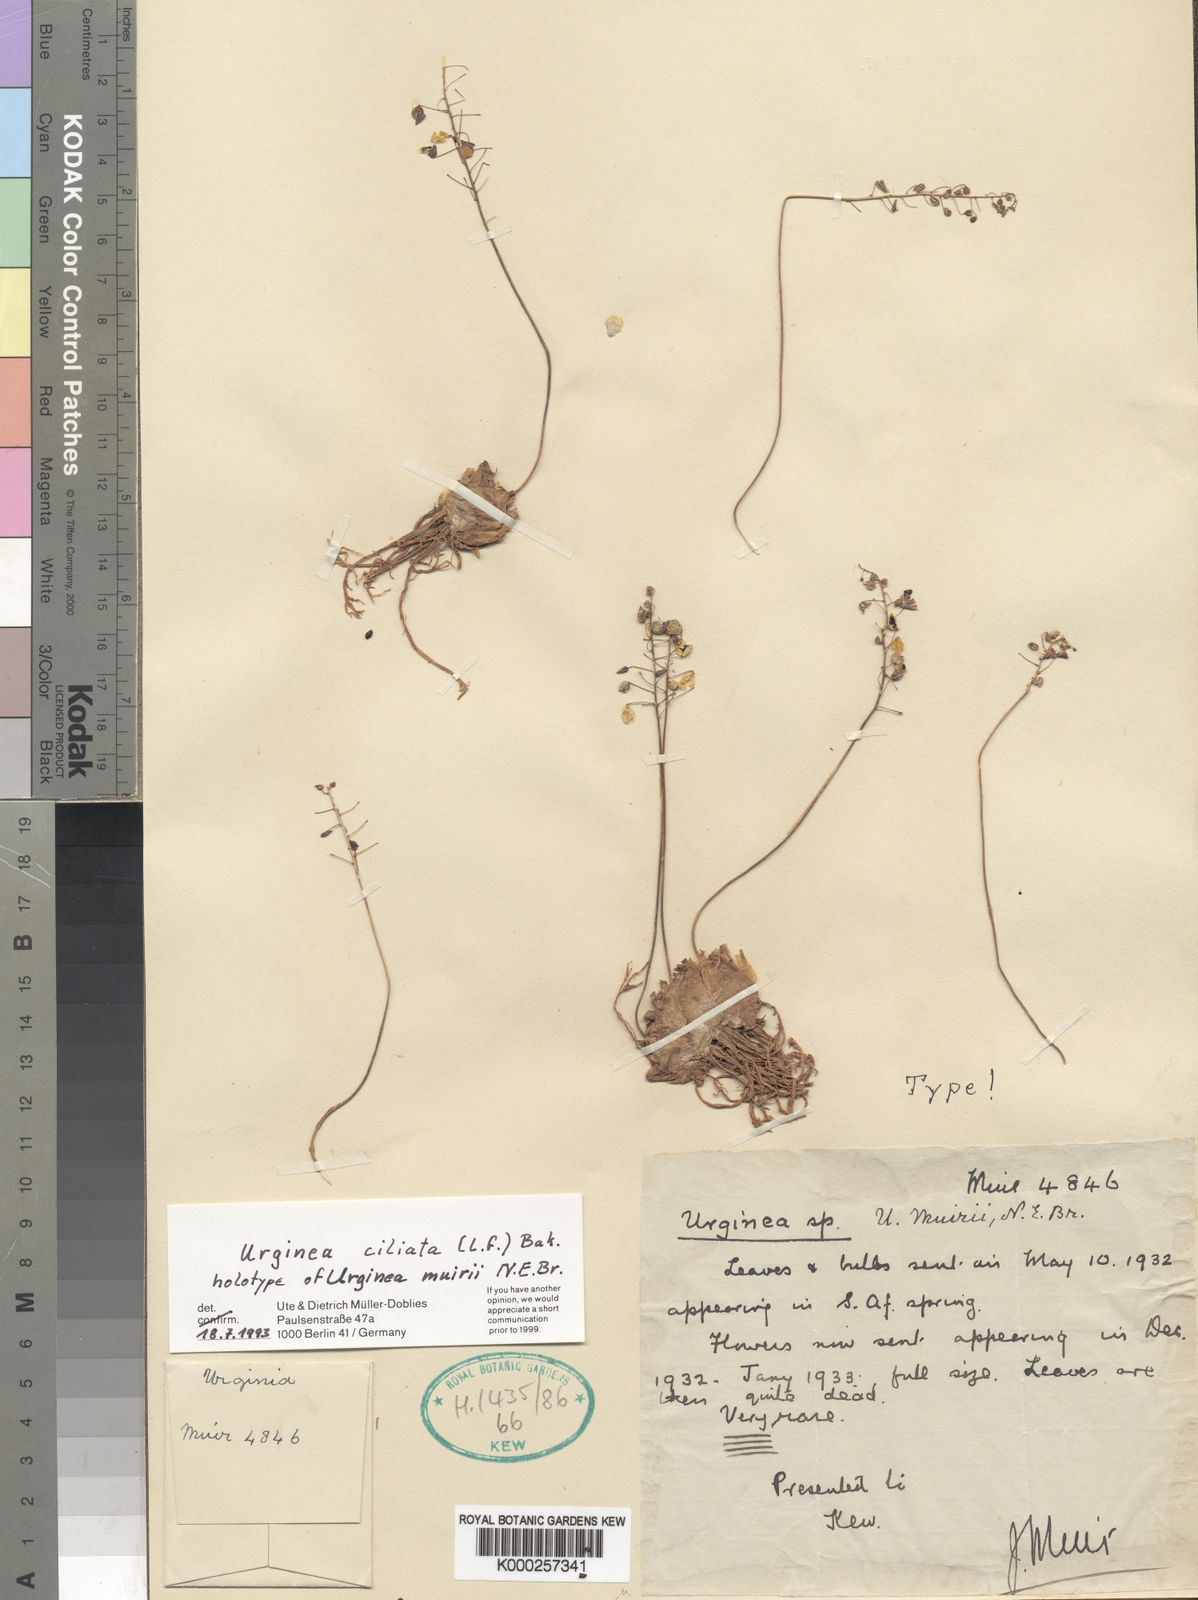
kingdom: Plantae
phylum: Tracheophyta
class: Liliopsida
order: Asparagales
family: Asparagaceae
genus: Drimia
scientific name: Drimia ciliata
